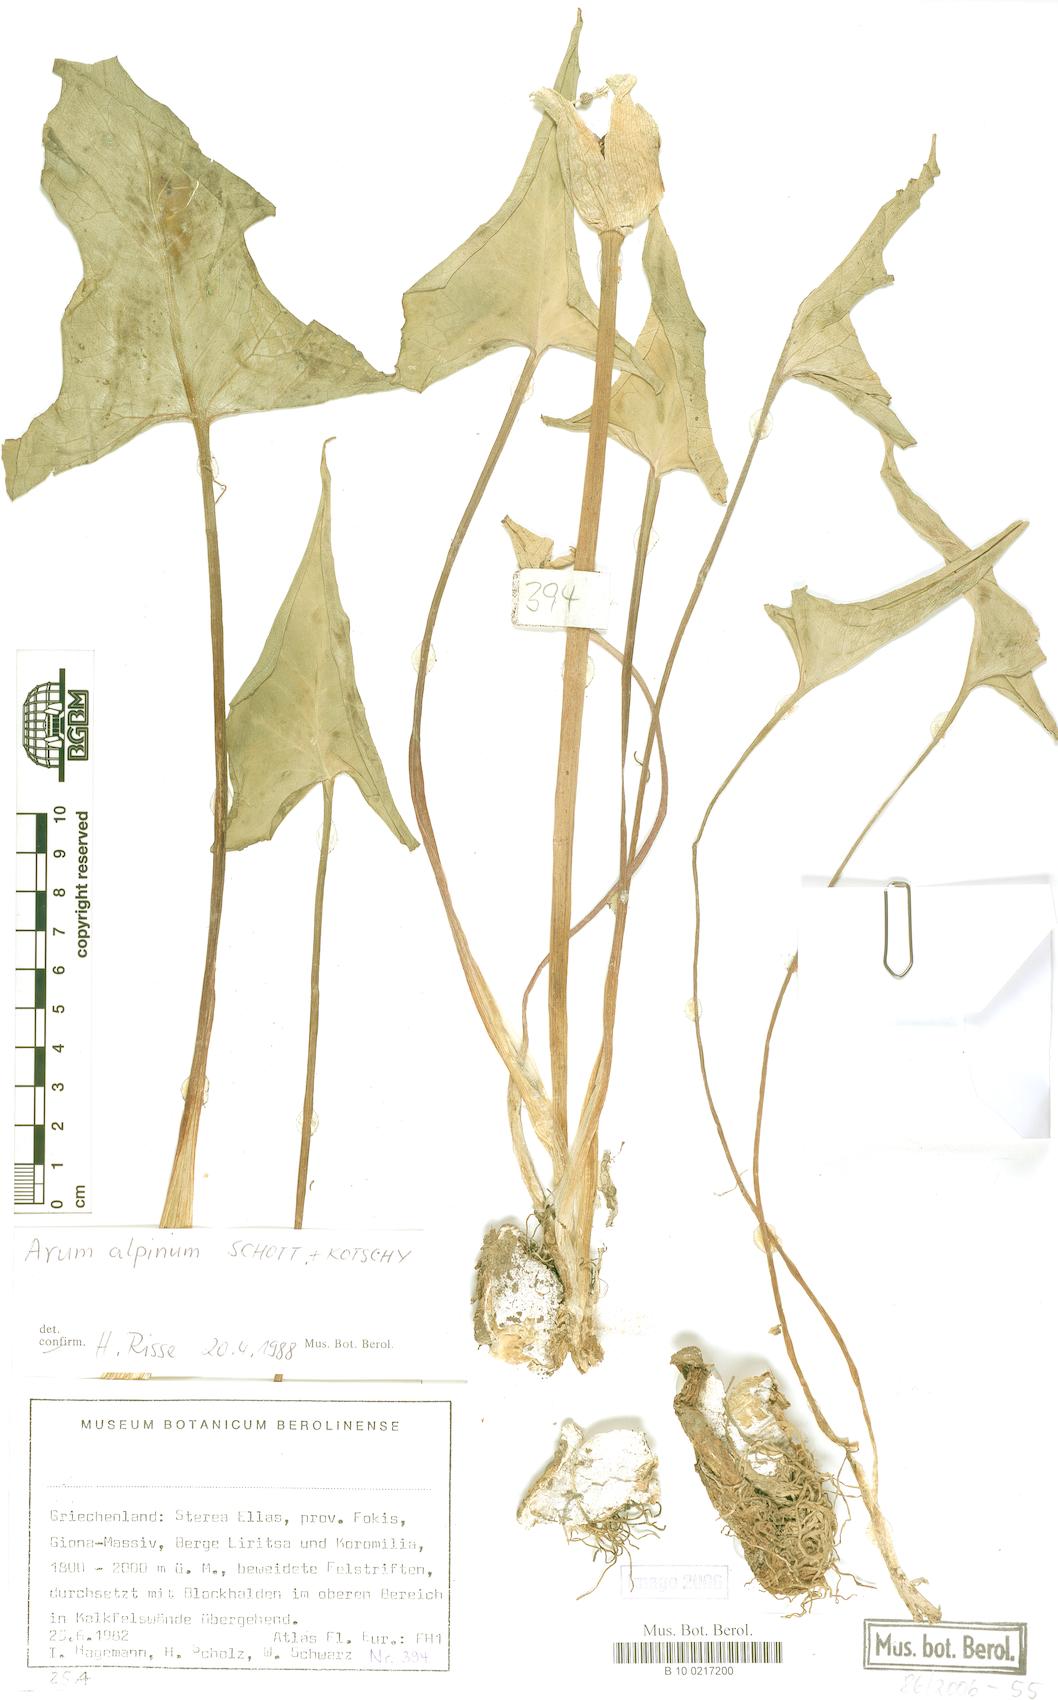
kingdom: Plantae
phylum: Tracheophyta
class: Liliopsida
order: Alismatales
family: Araceae
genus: Arum
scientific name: Arum cylindraceum
